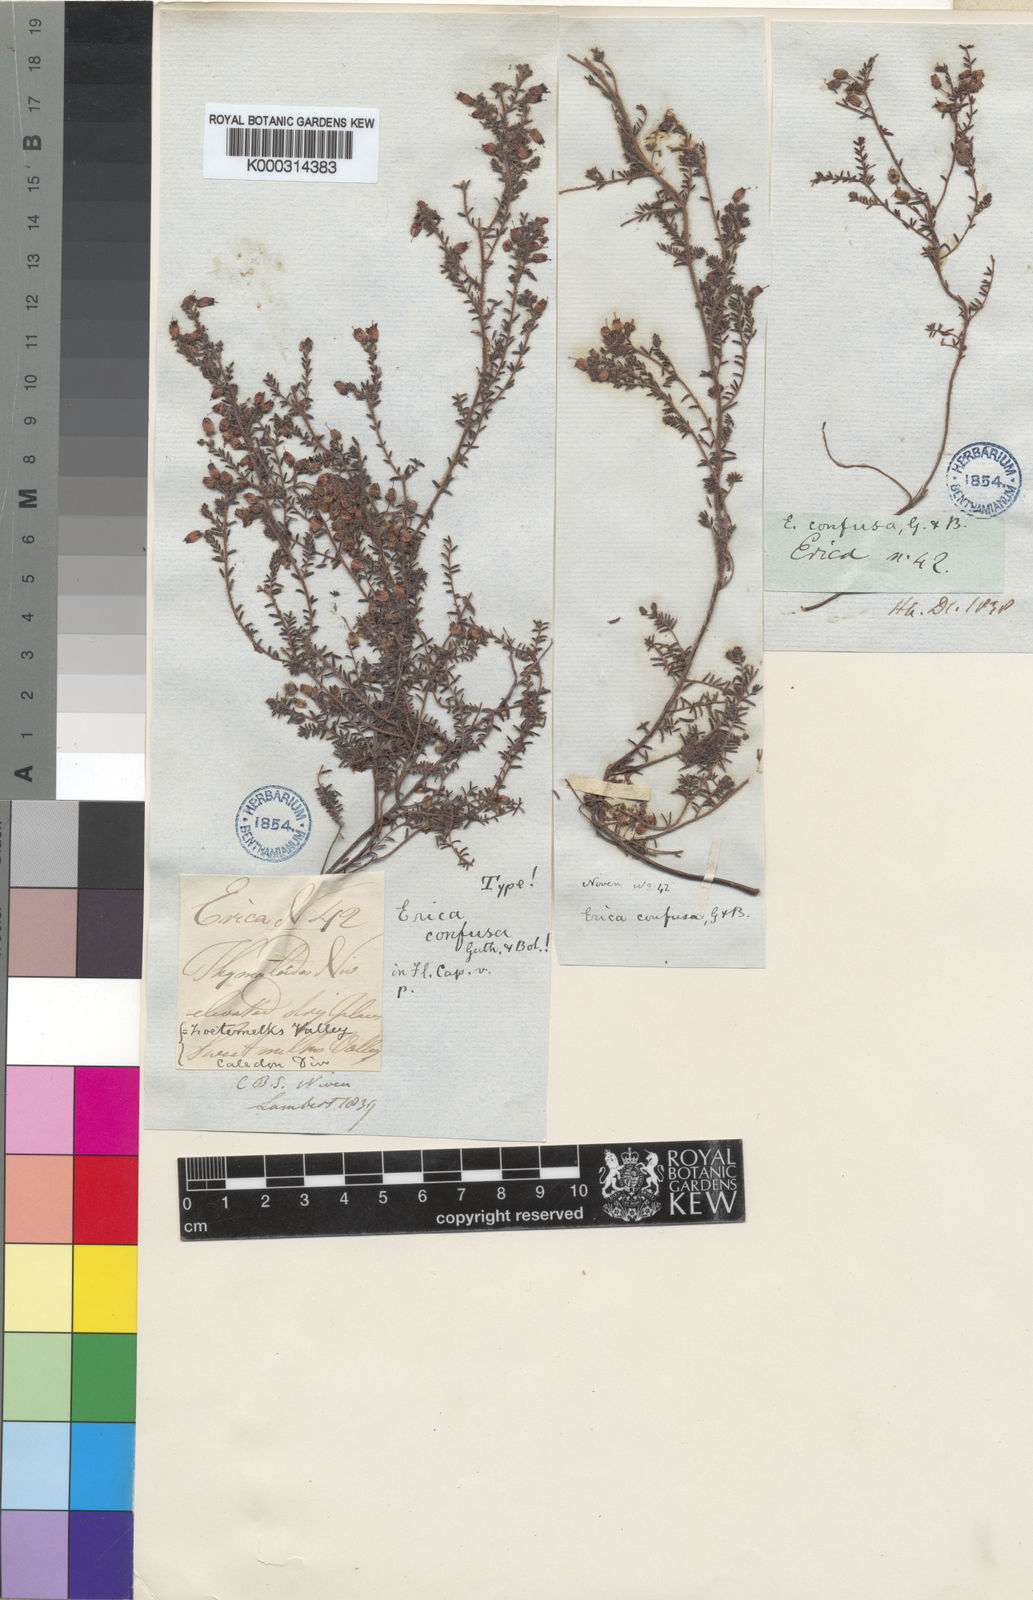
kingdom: Plantae
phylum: Tracheophyta
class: Magnoliopsida
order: Ericales
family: Ericaceae
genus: Erica
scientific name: Erica permutata
